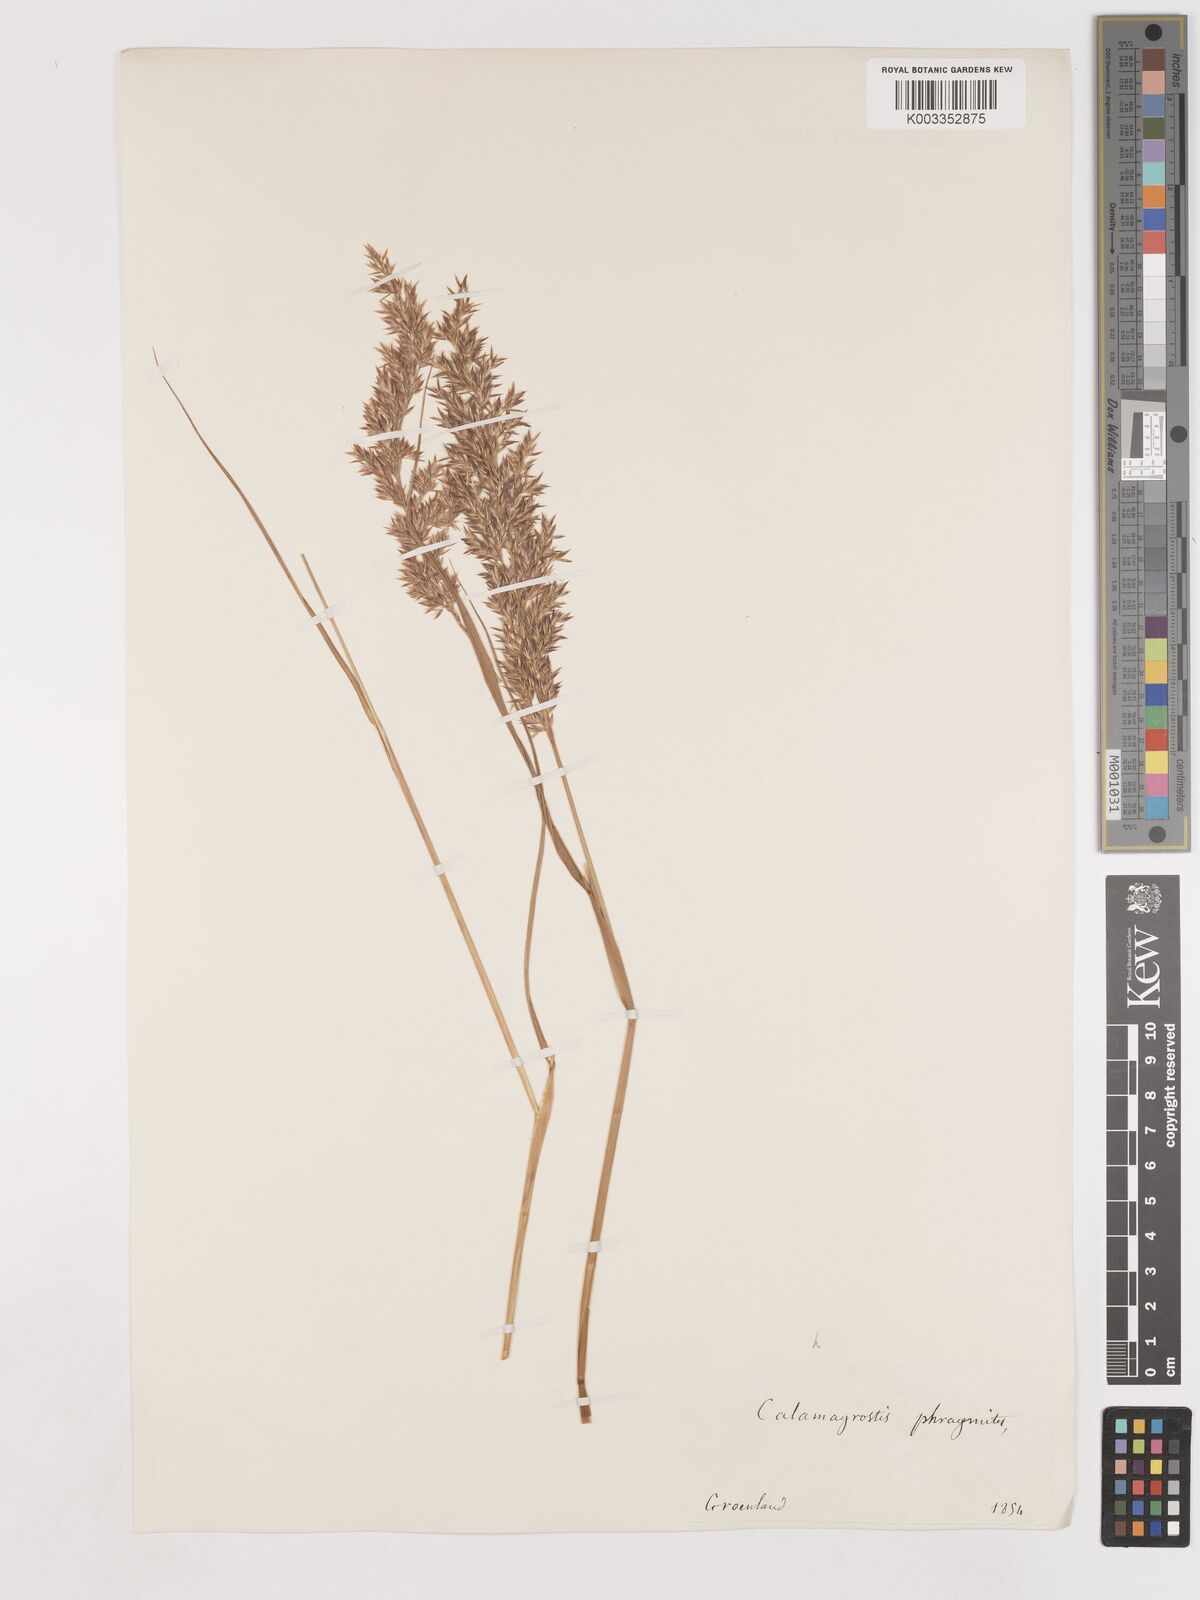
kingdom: Plantae
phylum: Tracheophyta
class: Liliopsida
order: Poales
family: Poaceae
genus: Calamagrostis
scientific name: Calamagrostis purpurea
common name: Scandinavian small-reed
